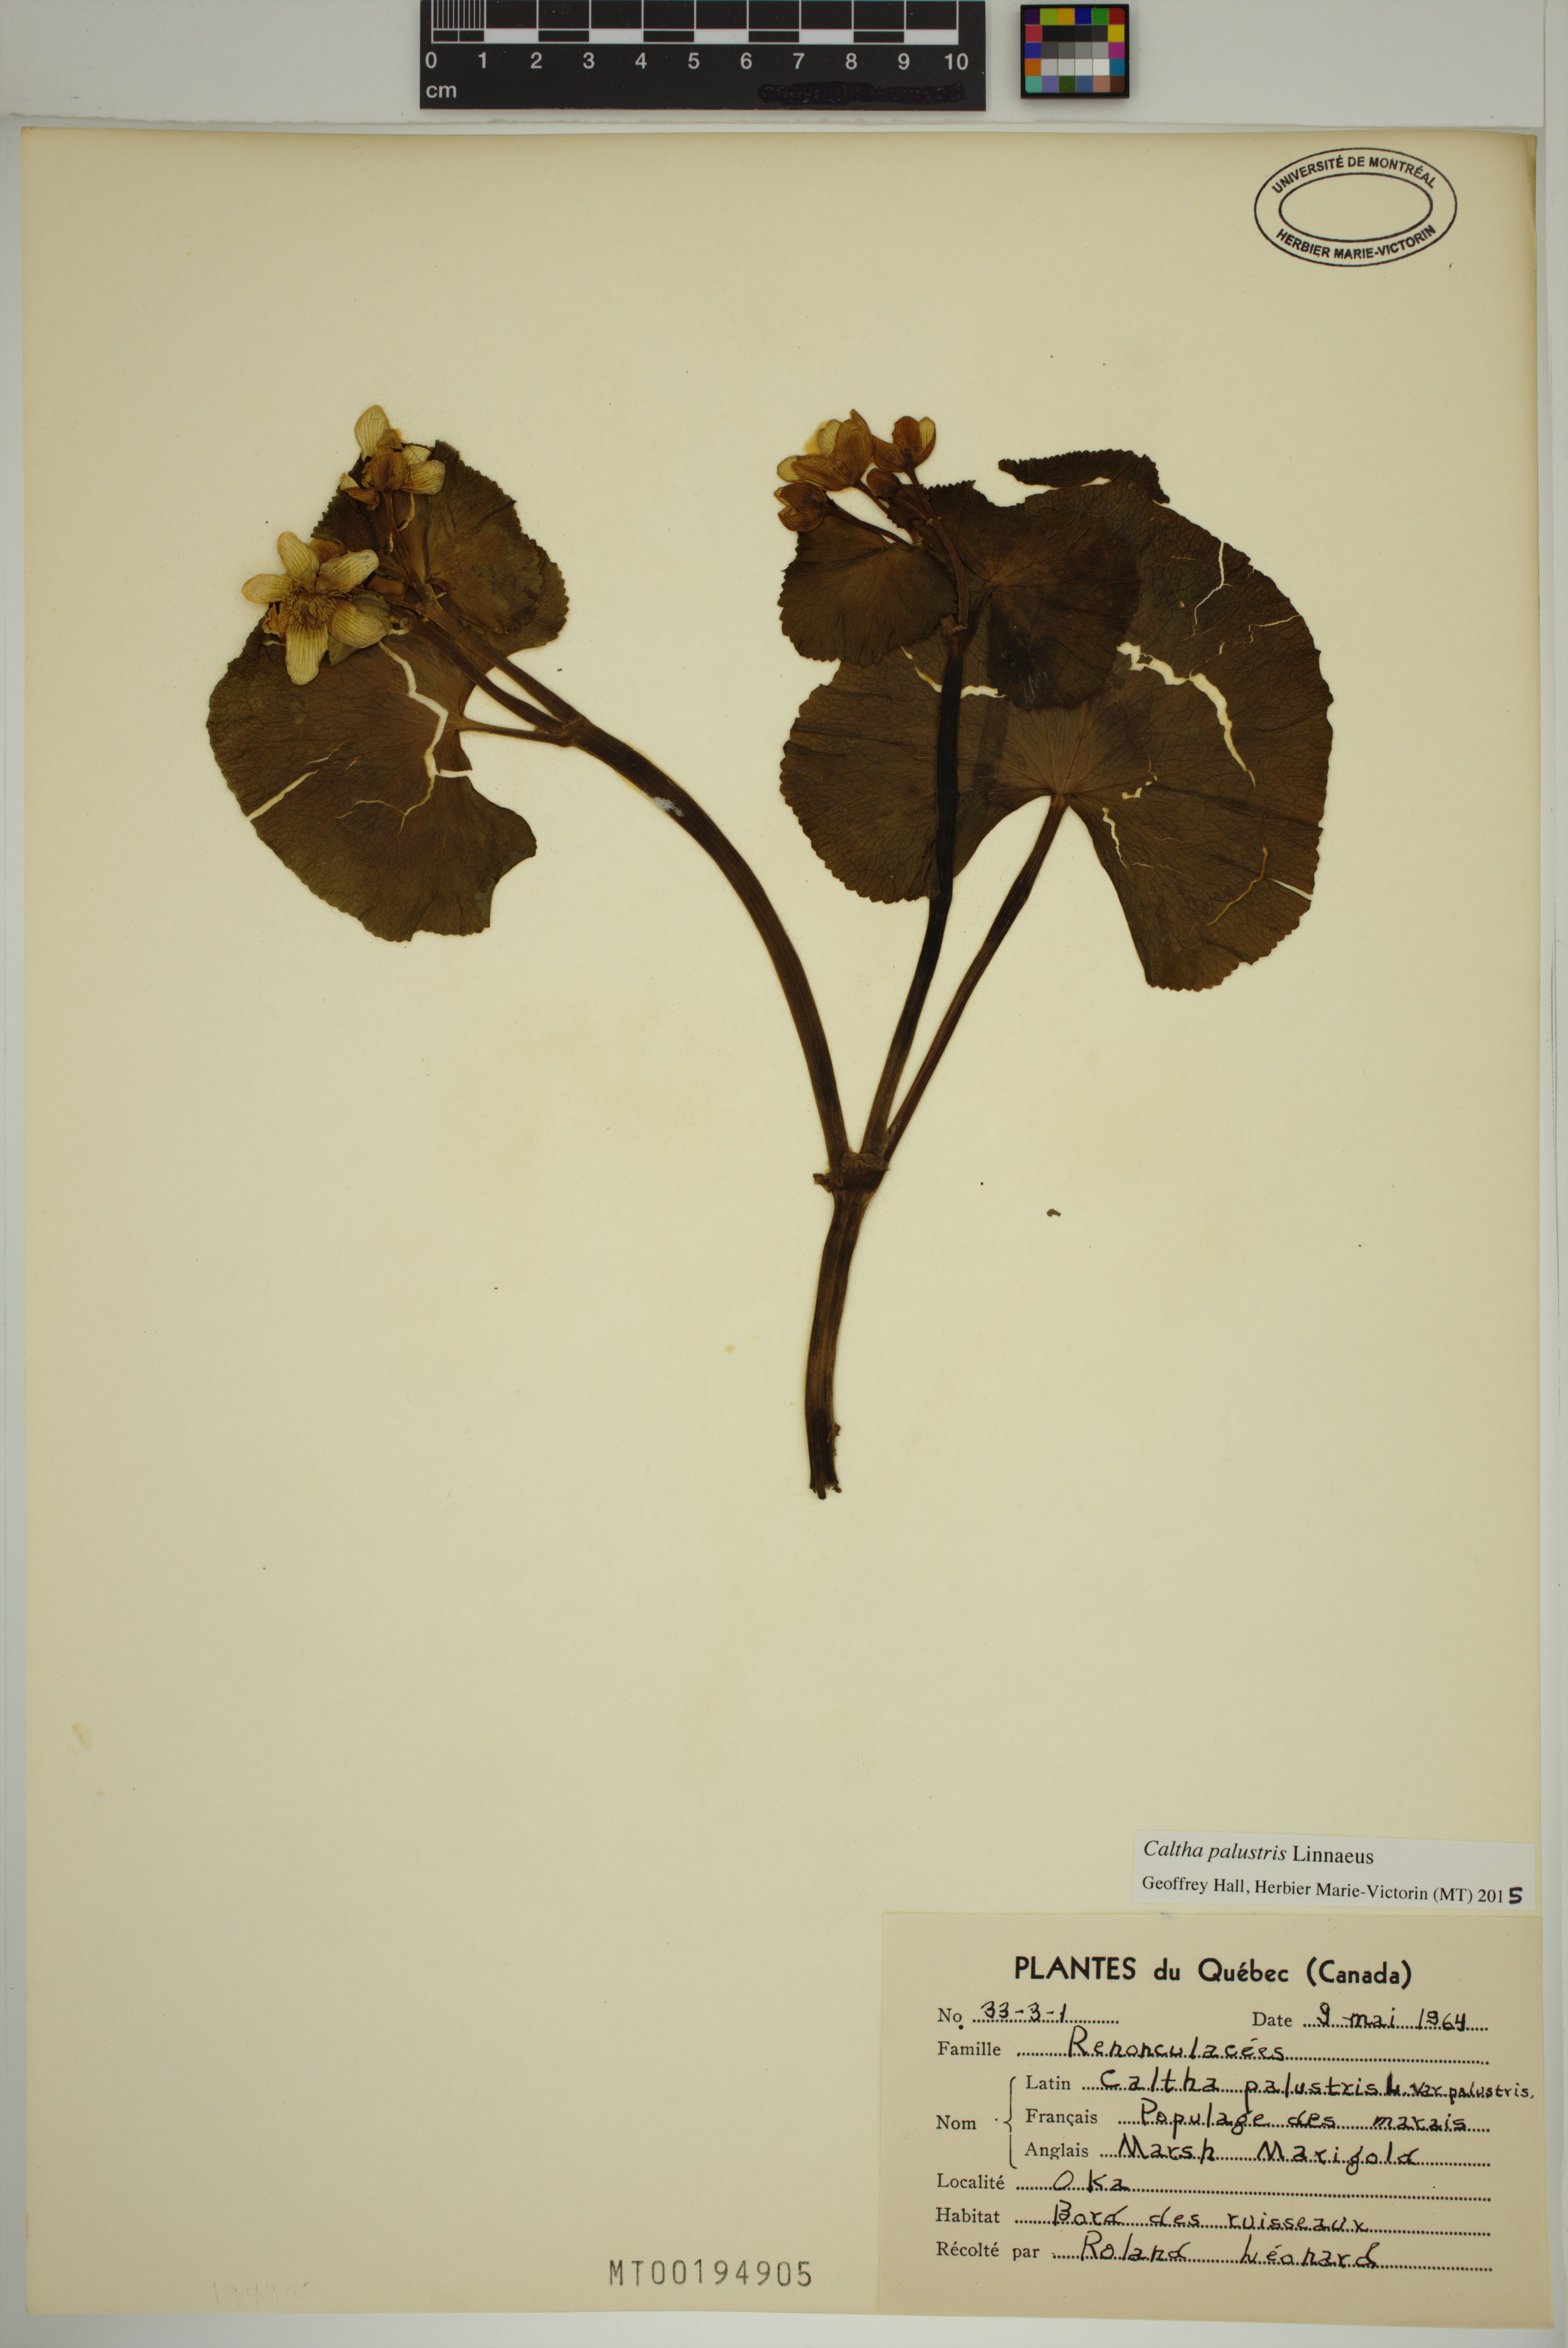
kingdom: Plantae
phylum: Tracheophyta
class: Magnoliopsida
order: Ranunculales
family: Ranunculaceae
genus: Caltha
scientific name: Caltha palustris
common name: Marsh marigold
